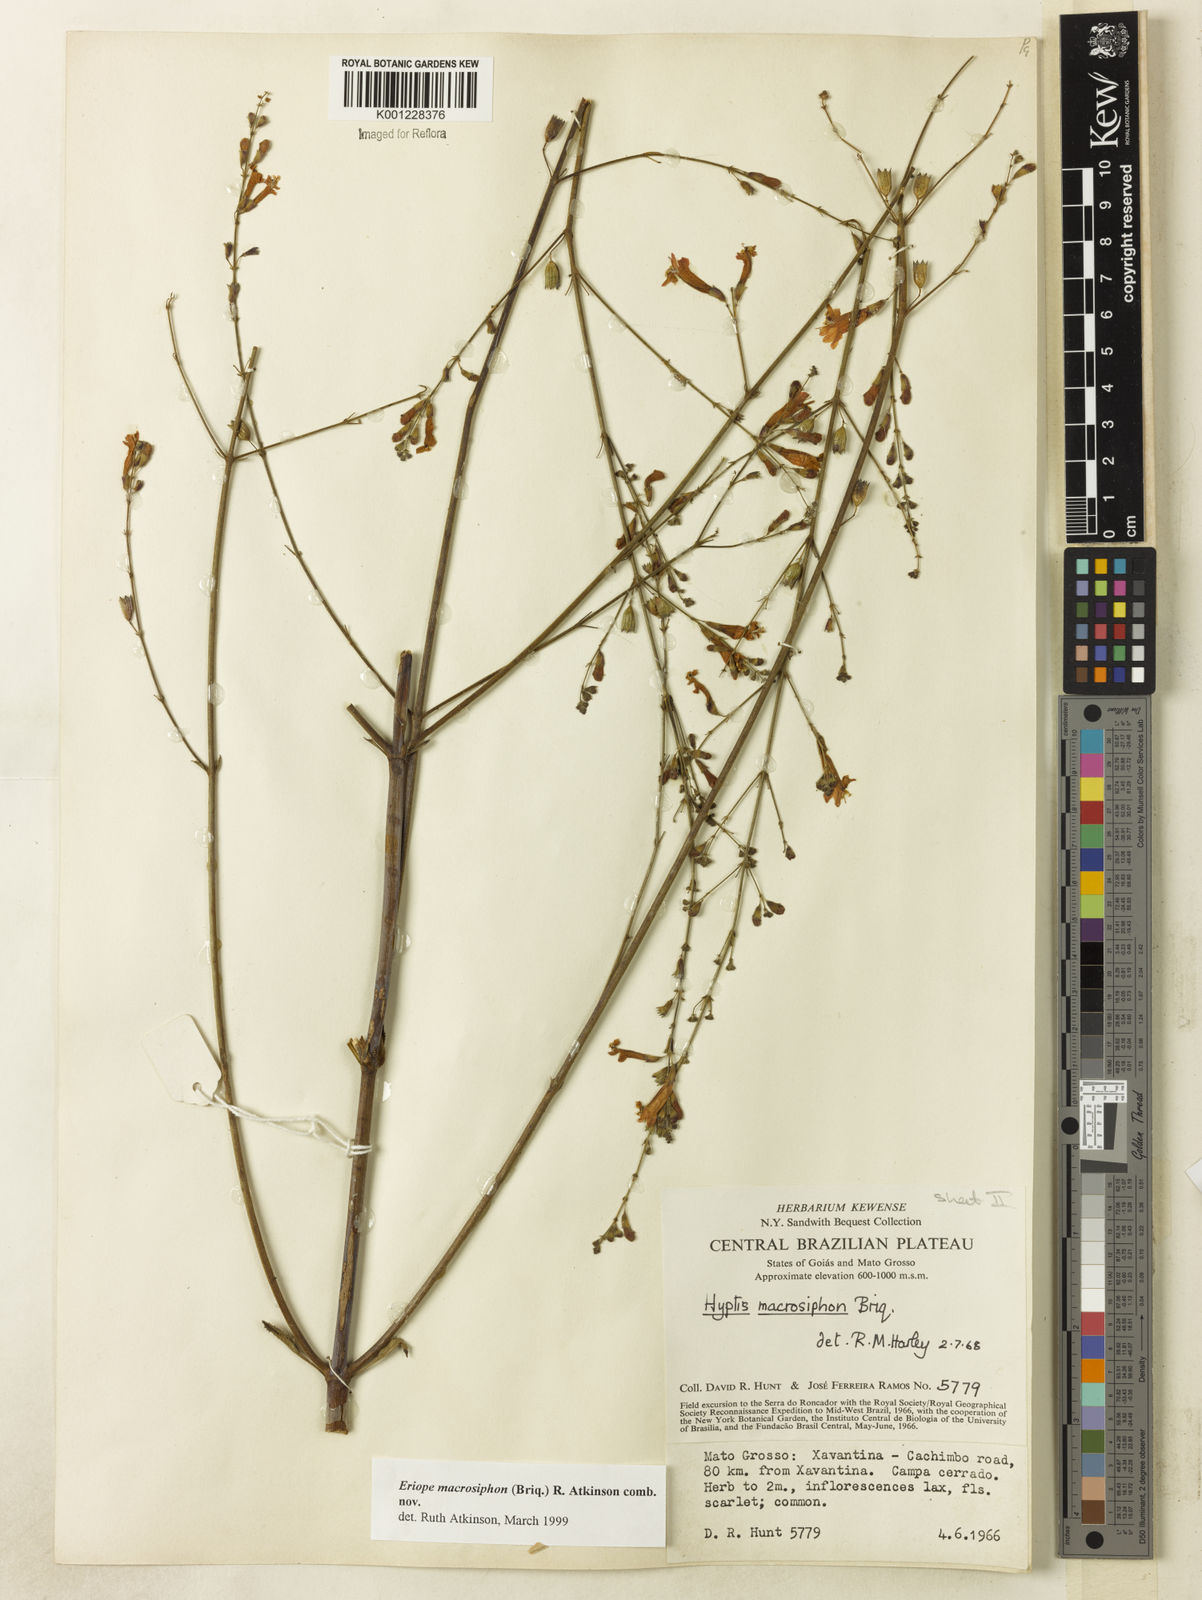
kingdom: Plantae
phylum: Tracheophyta
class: Magnoliopsida
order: Lamiales
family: Lamiaceae
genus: Hypenia
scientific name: Hypenia macrosiphon
